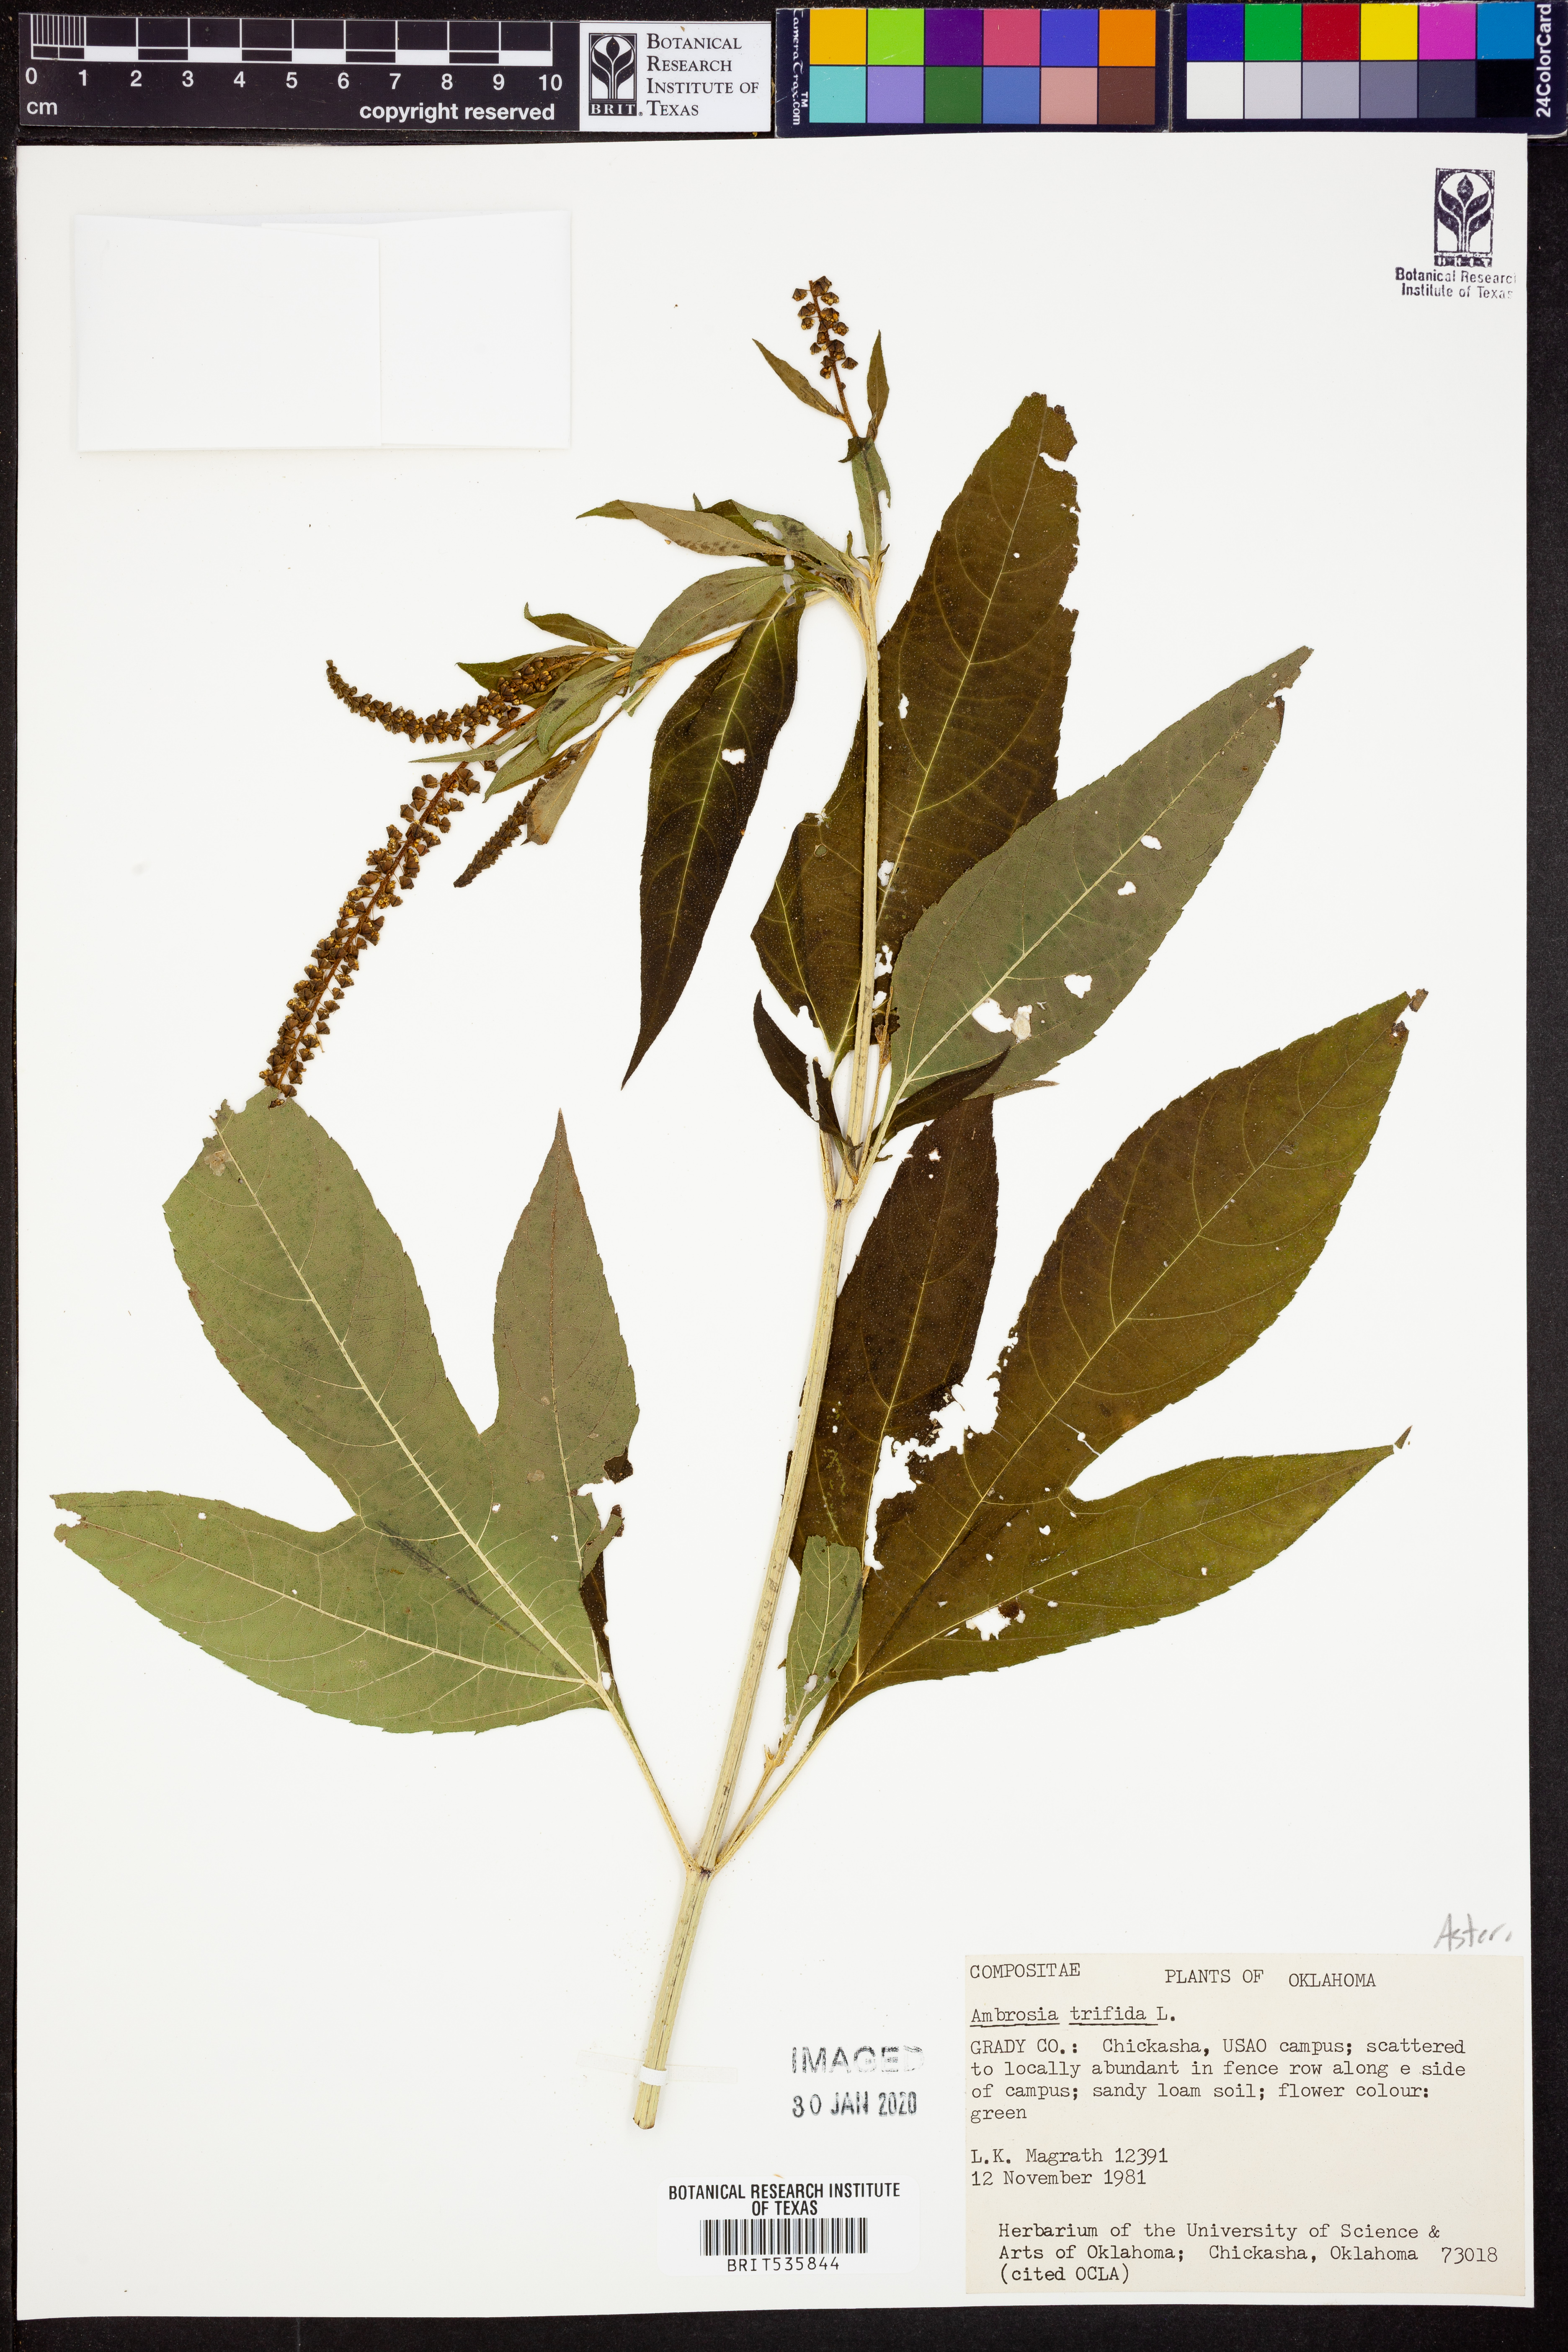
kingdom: Plantae
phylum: Tracheophyta
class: Magnoliopsida
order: Asterales
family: Asteraceae
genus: Ambrosia
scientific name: Ambrosia trifida
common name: Giant ragweed
